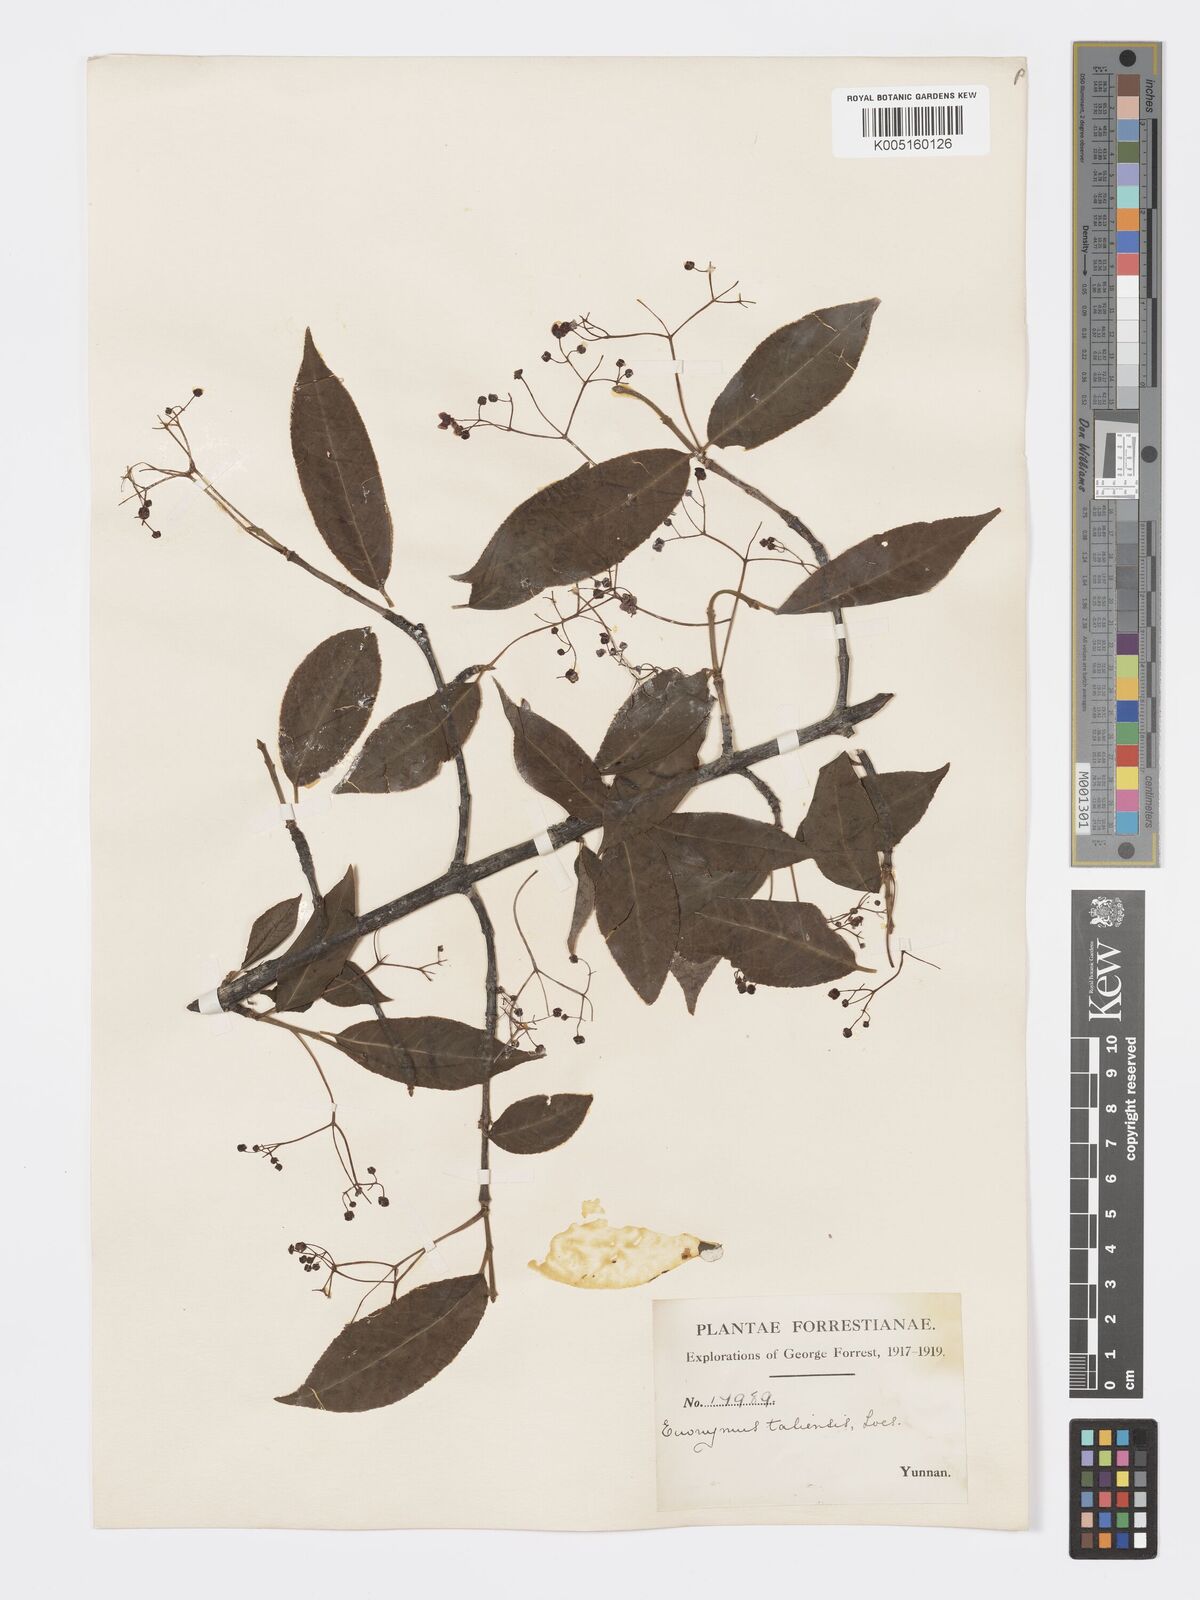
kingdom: Plantae
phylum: Tracheophyta
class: Magnoliopsida
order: Celastrales
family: Celastraceae
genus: Euonymus
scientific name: Euonymus amygdalifolius
